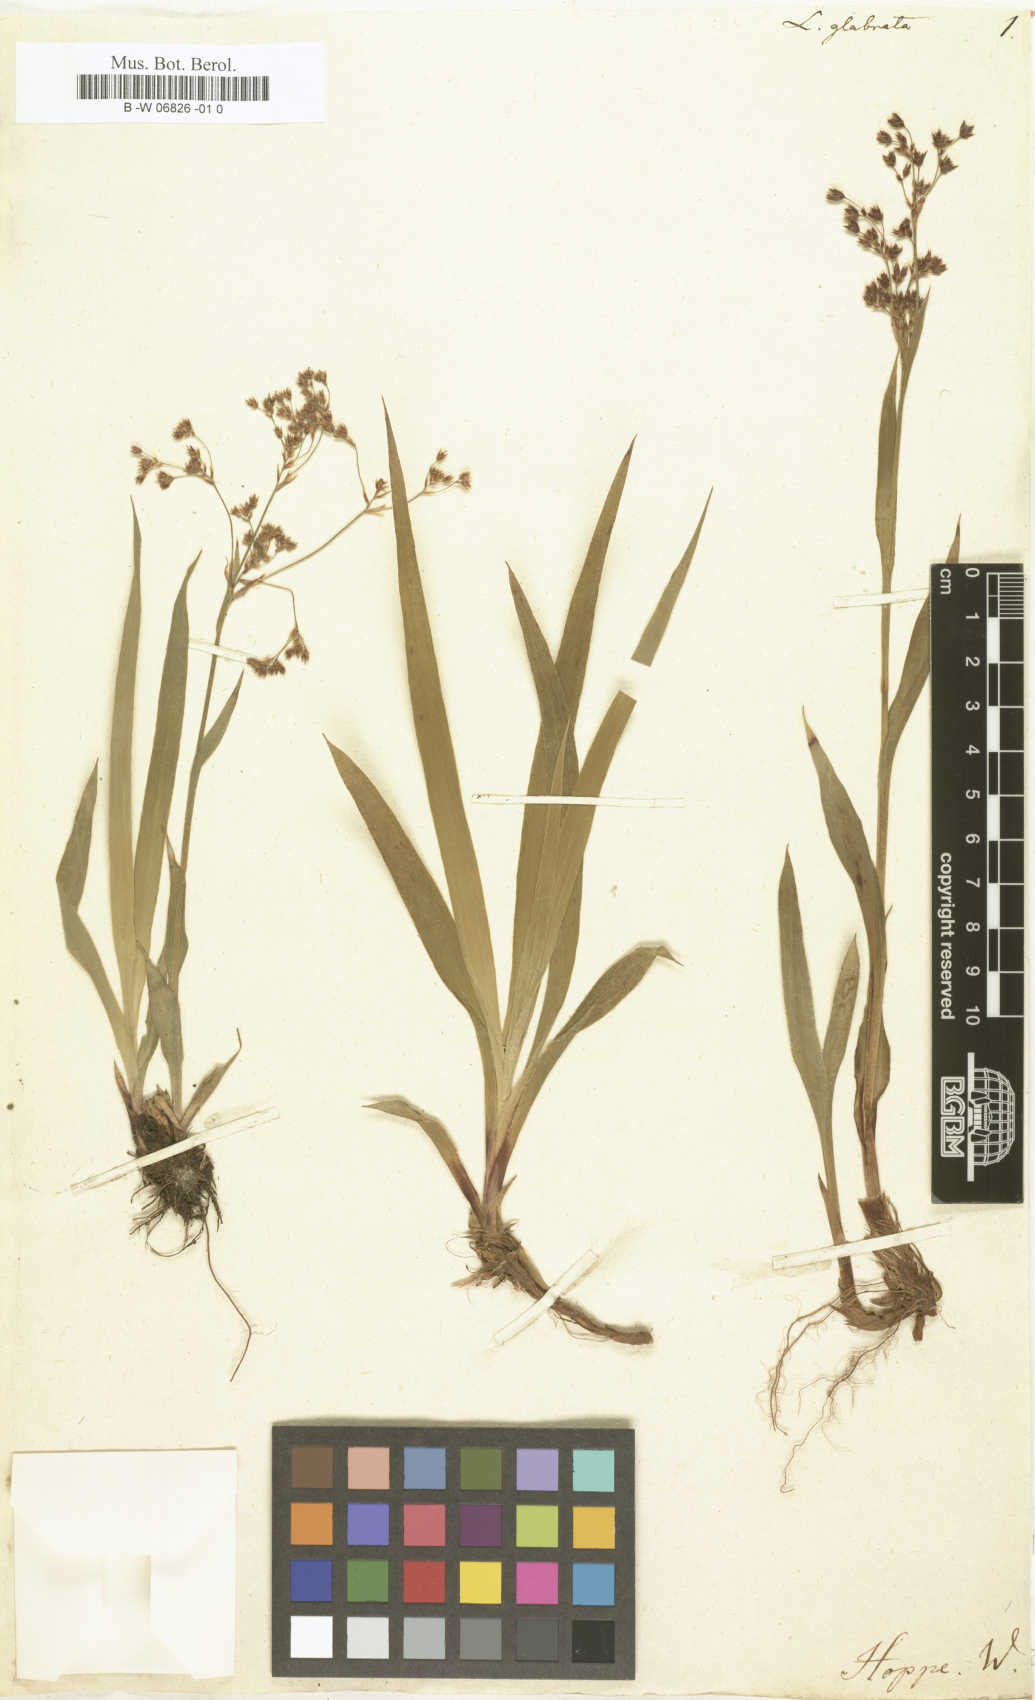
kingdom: Plantae
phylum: Tracheophyta
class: Liliopsida
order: Poales
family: Juncaceae
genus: Luzula
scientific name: Luzula glabrata
